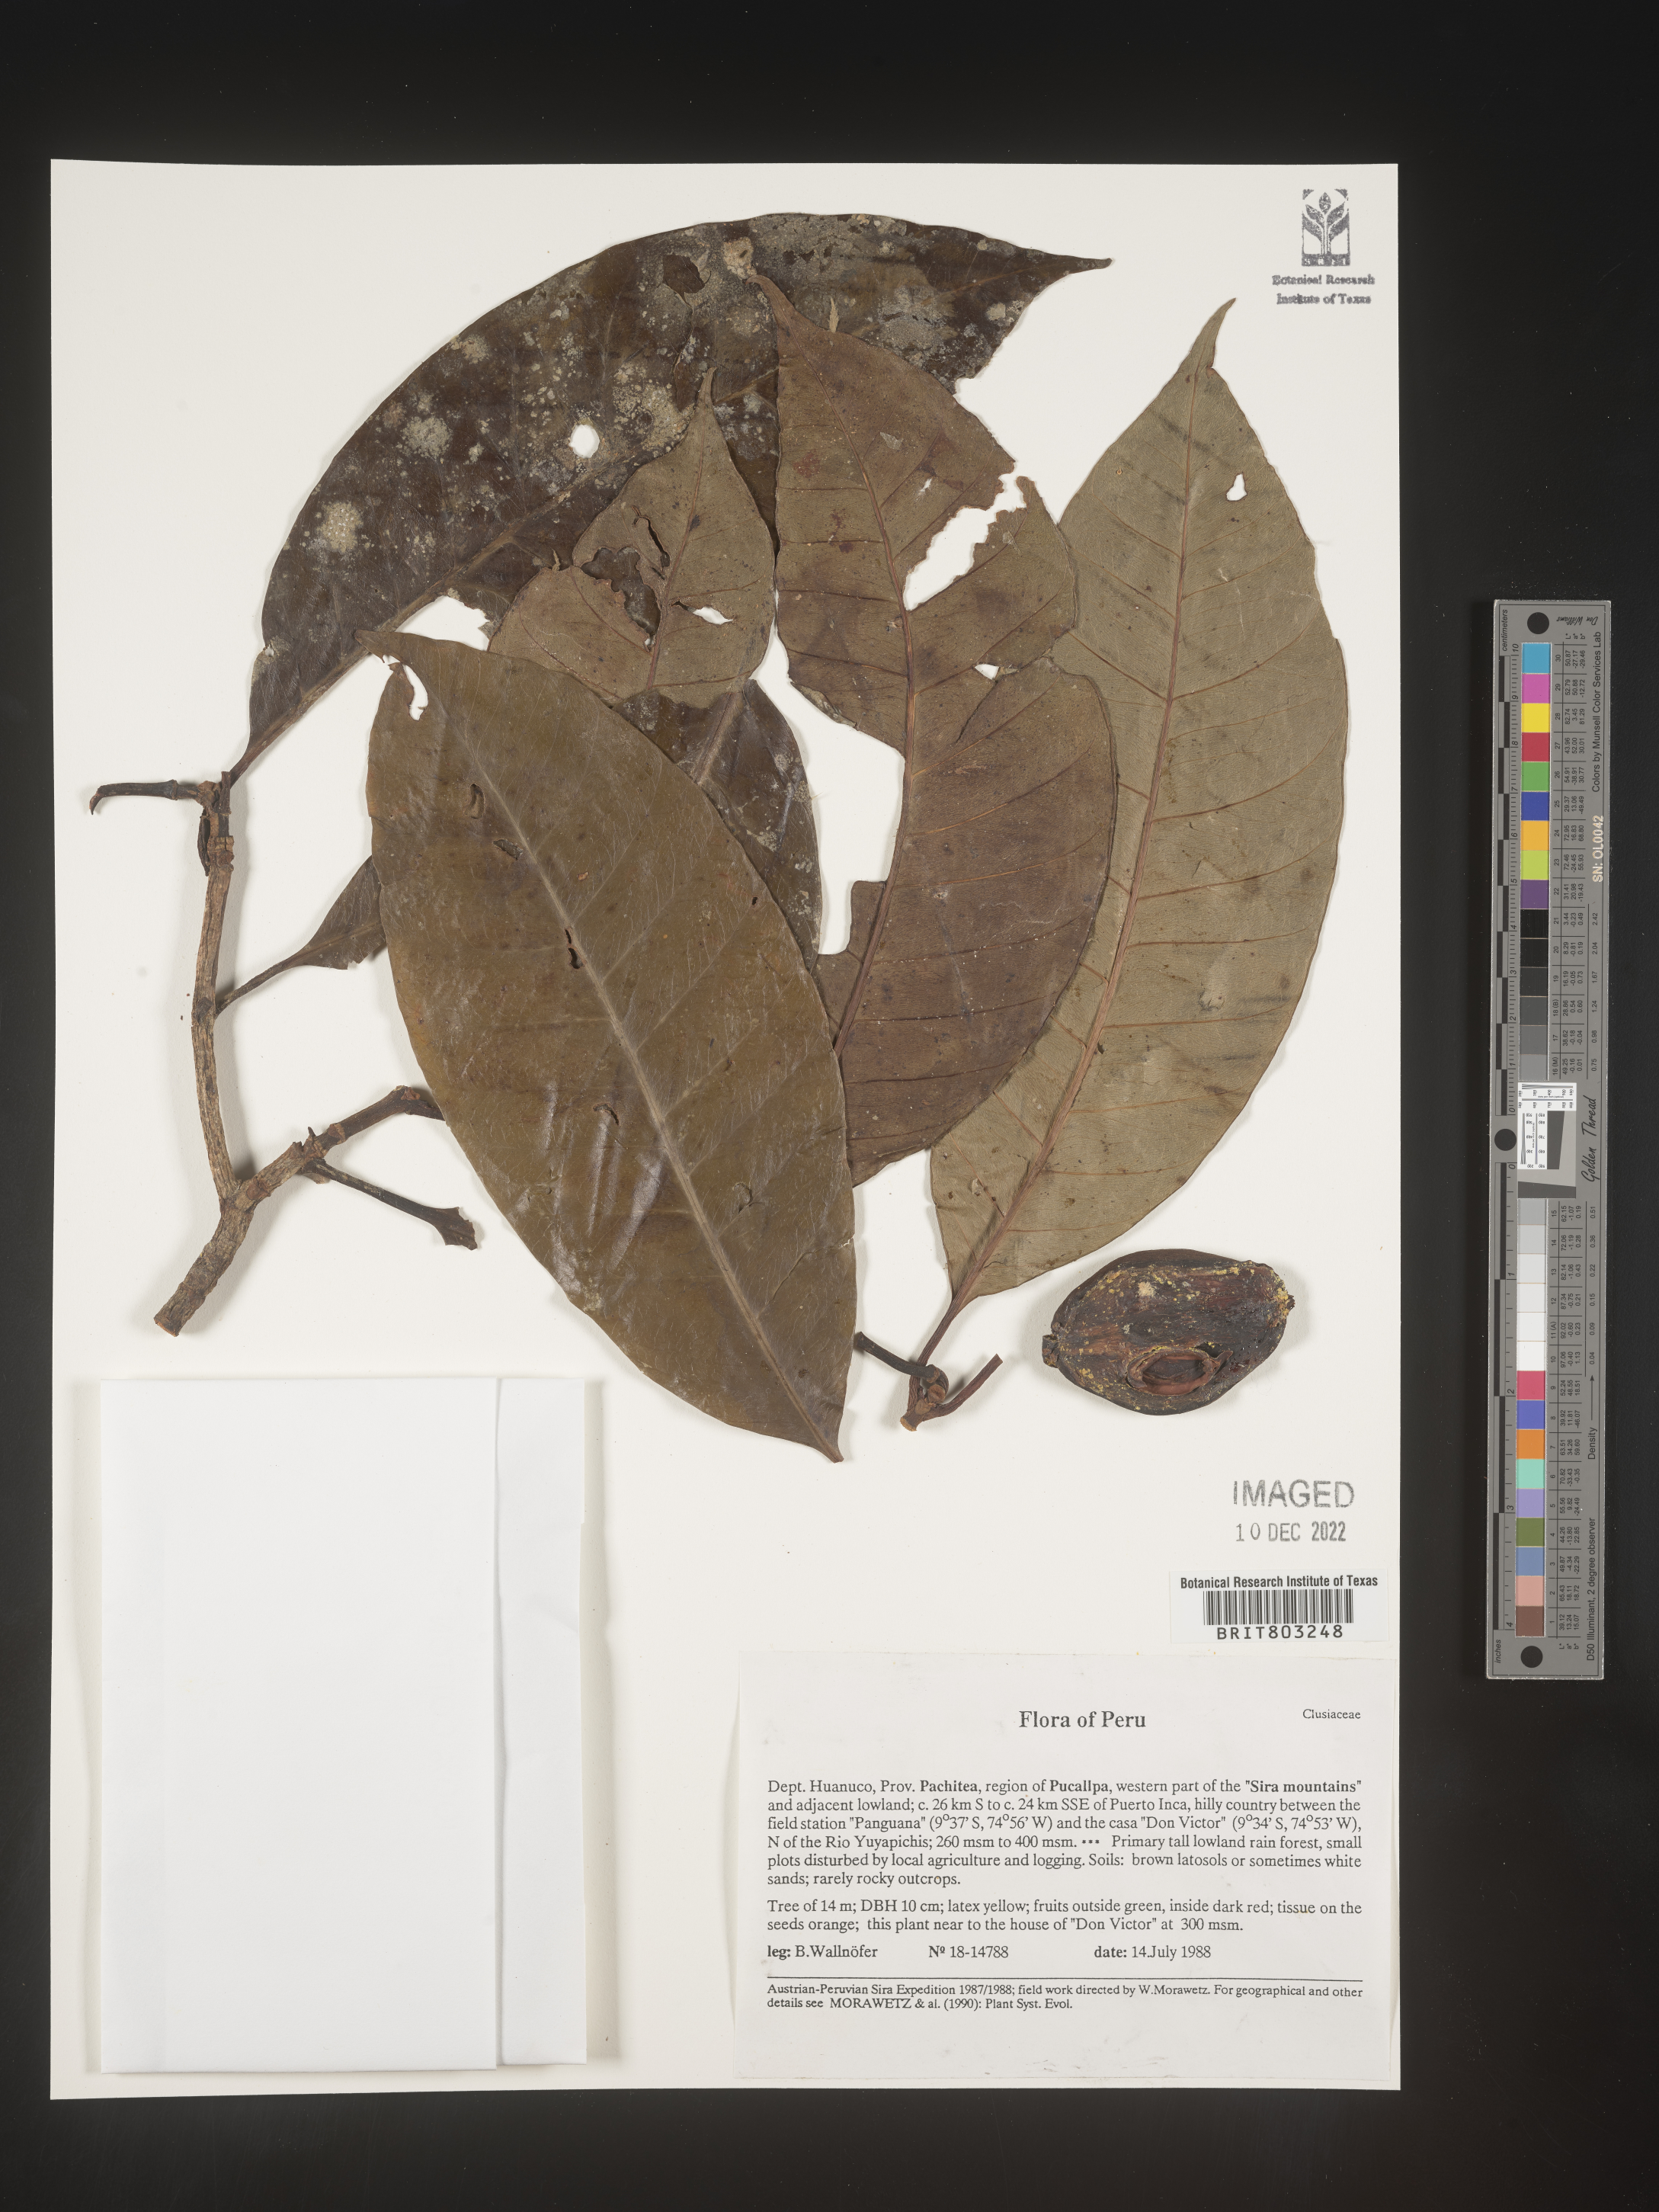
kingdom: Plantae
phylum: Tracheophyta
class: Magnoliopsida
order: Malpighiales
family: Clusiaceae
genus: Tovomita
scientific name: Tovomita
